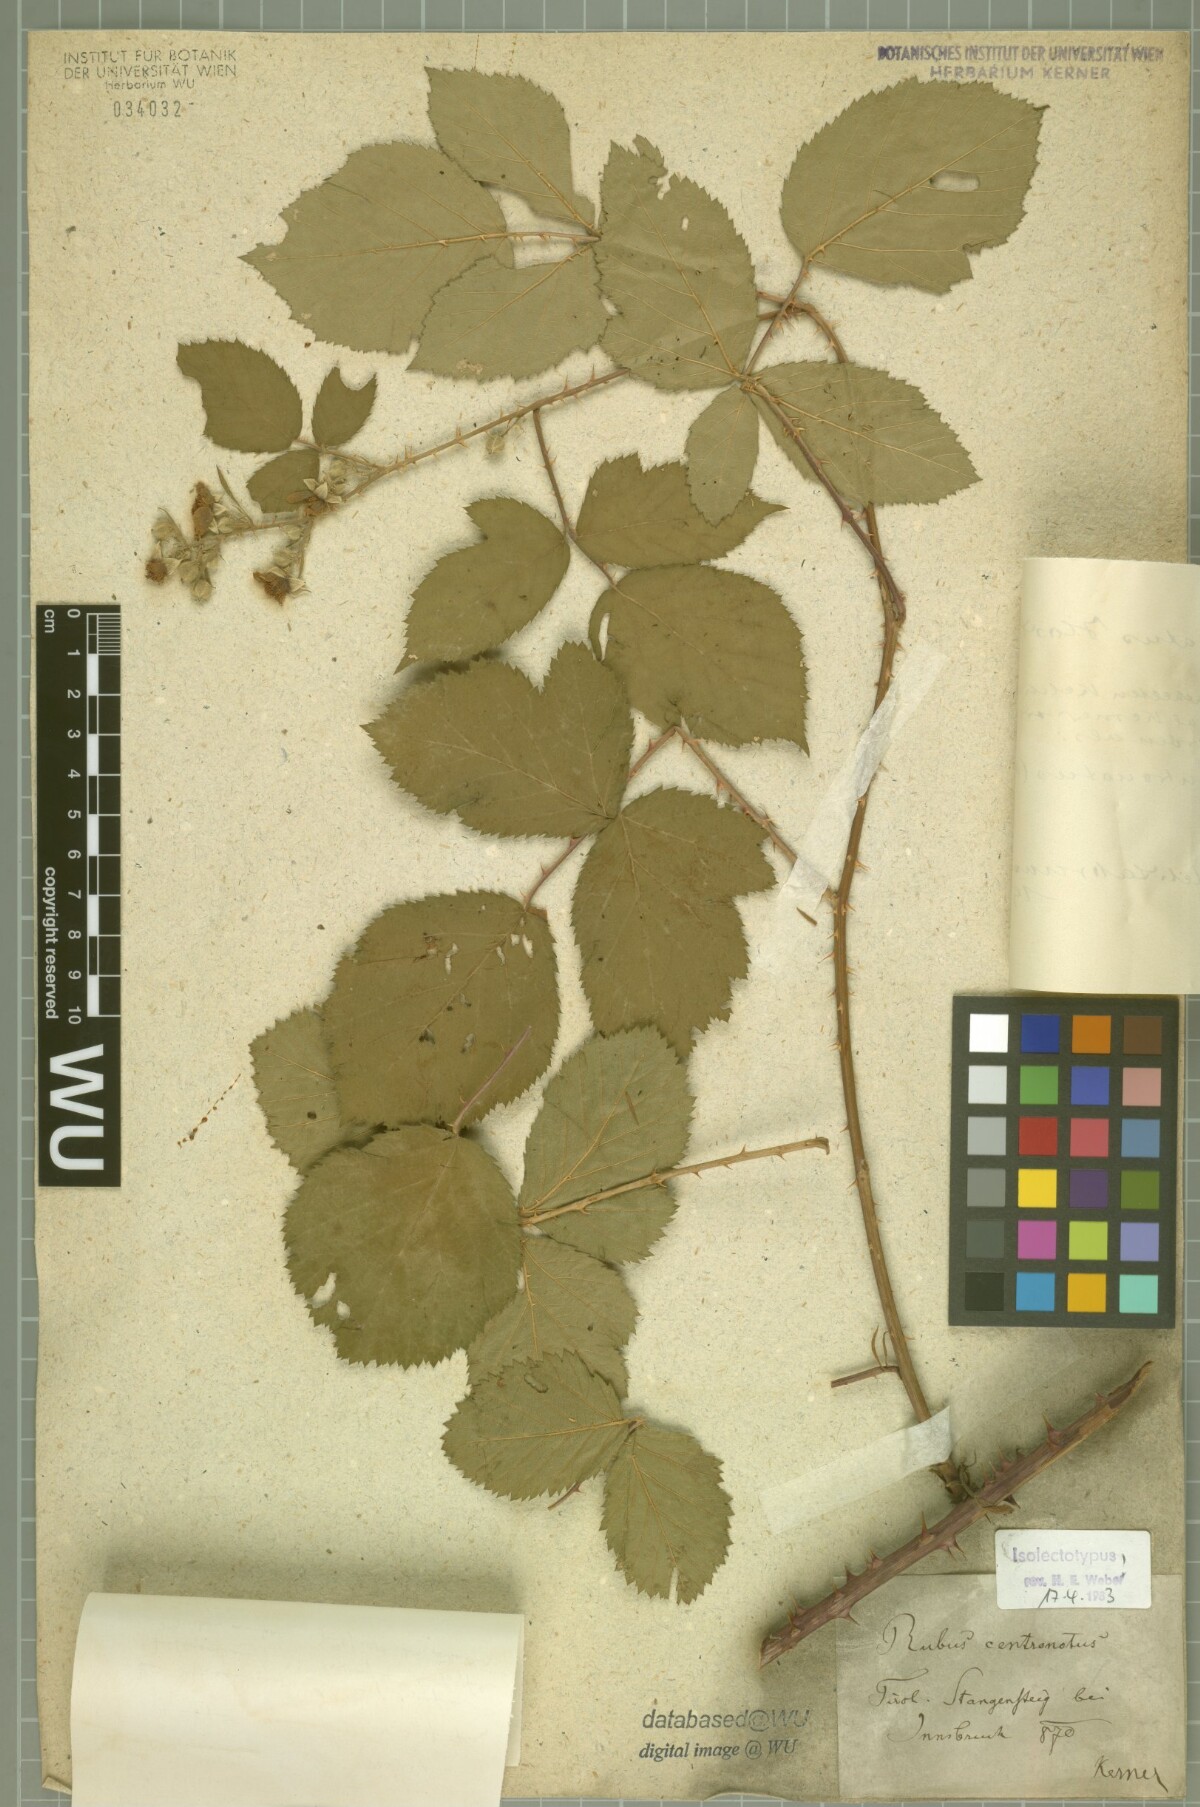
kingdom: Plantae
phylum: Tracheophyta
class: Magnoliopsida
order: Rosales
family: Rosaceae
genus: Rubus
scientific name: Rubus centronotus
